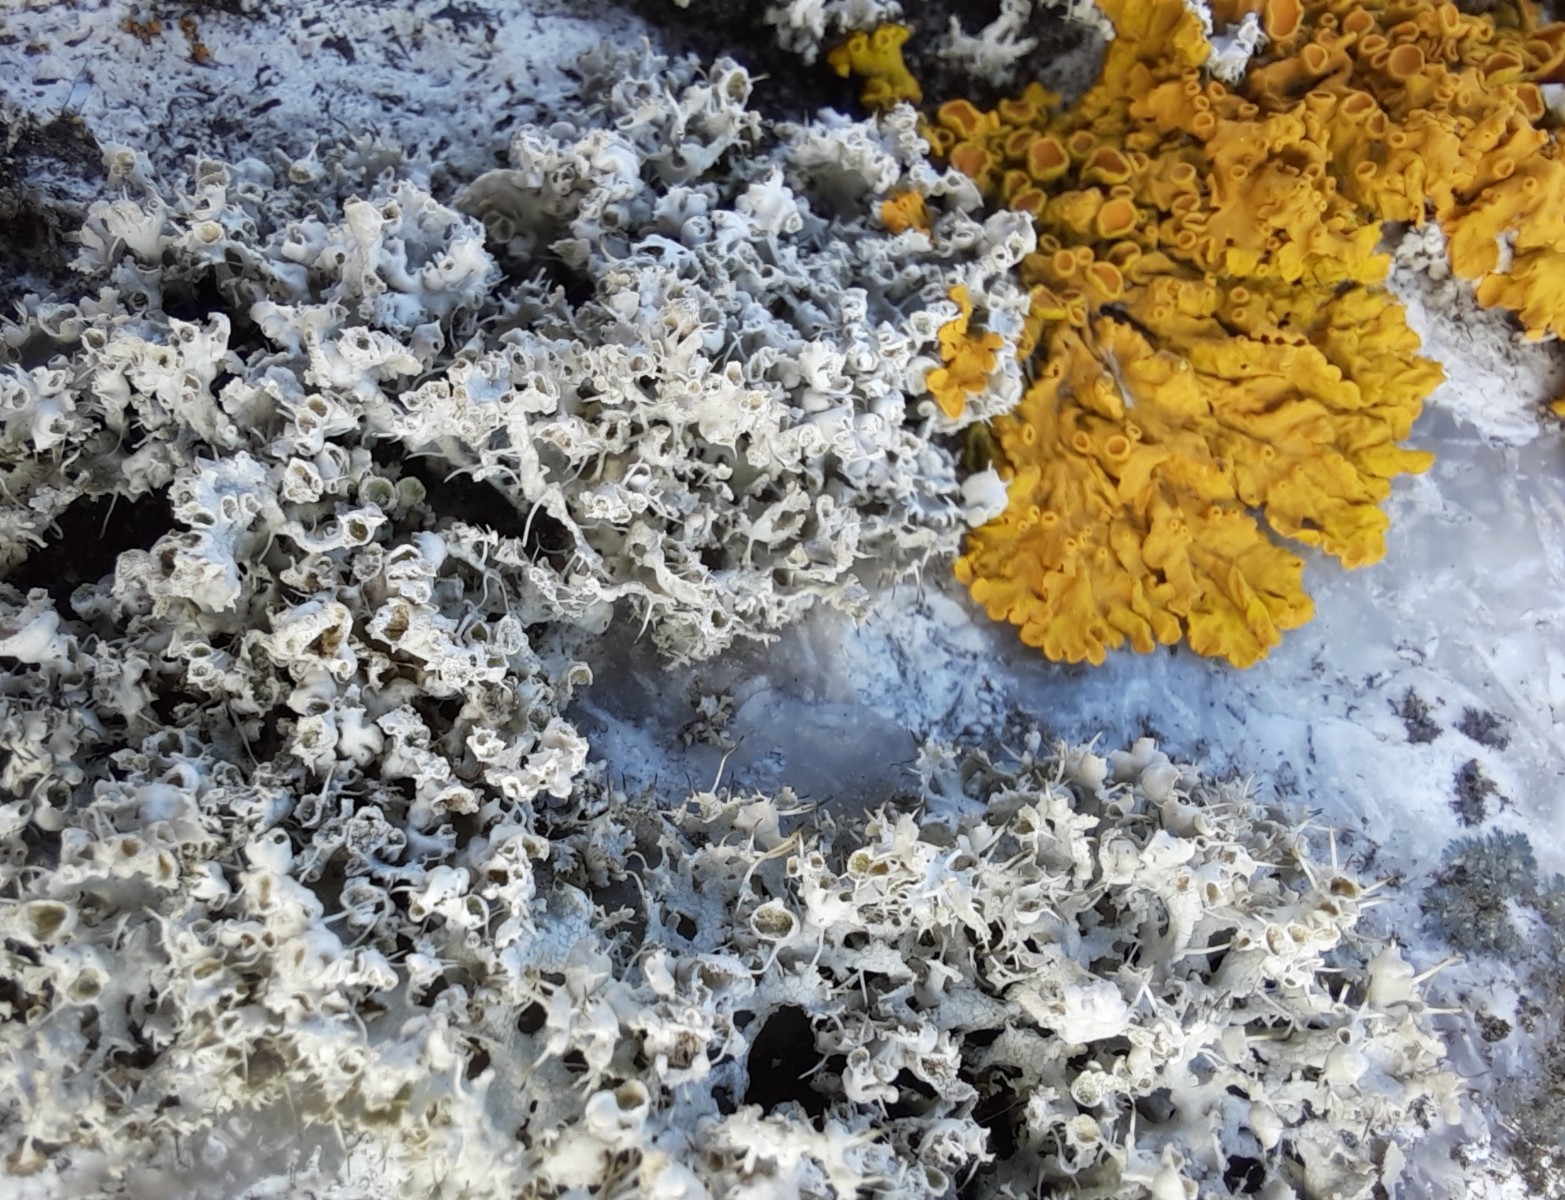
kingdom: Fungi
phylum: Ascomycota
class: Lecanoromycetes
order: Caliciales
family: Physciaceae
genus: Physcia
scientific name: Physcia adscendens
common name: hætte-rosetlav
